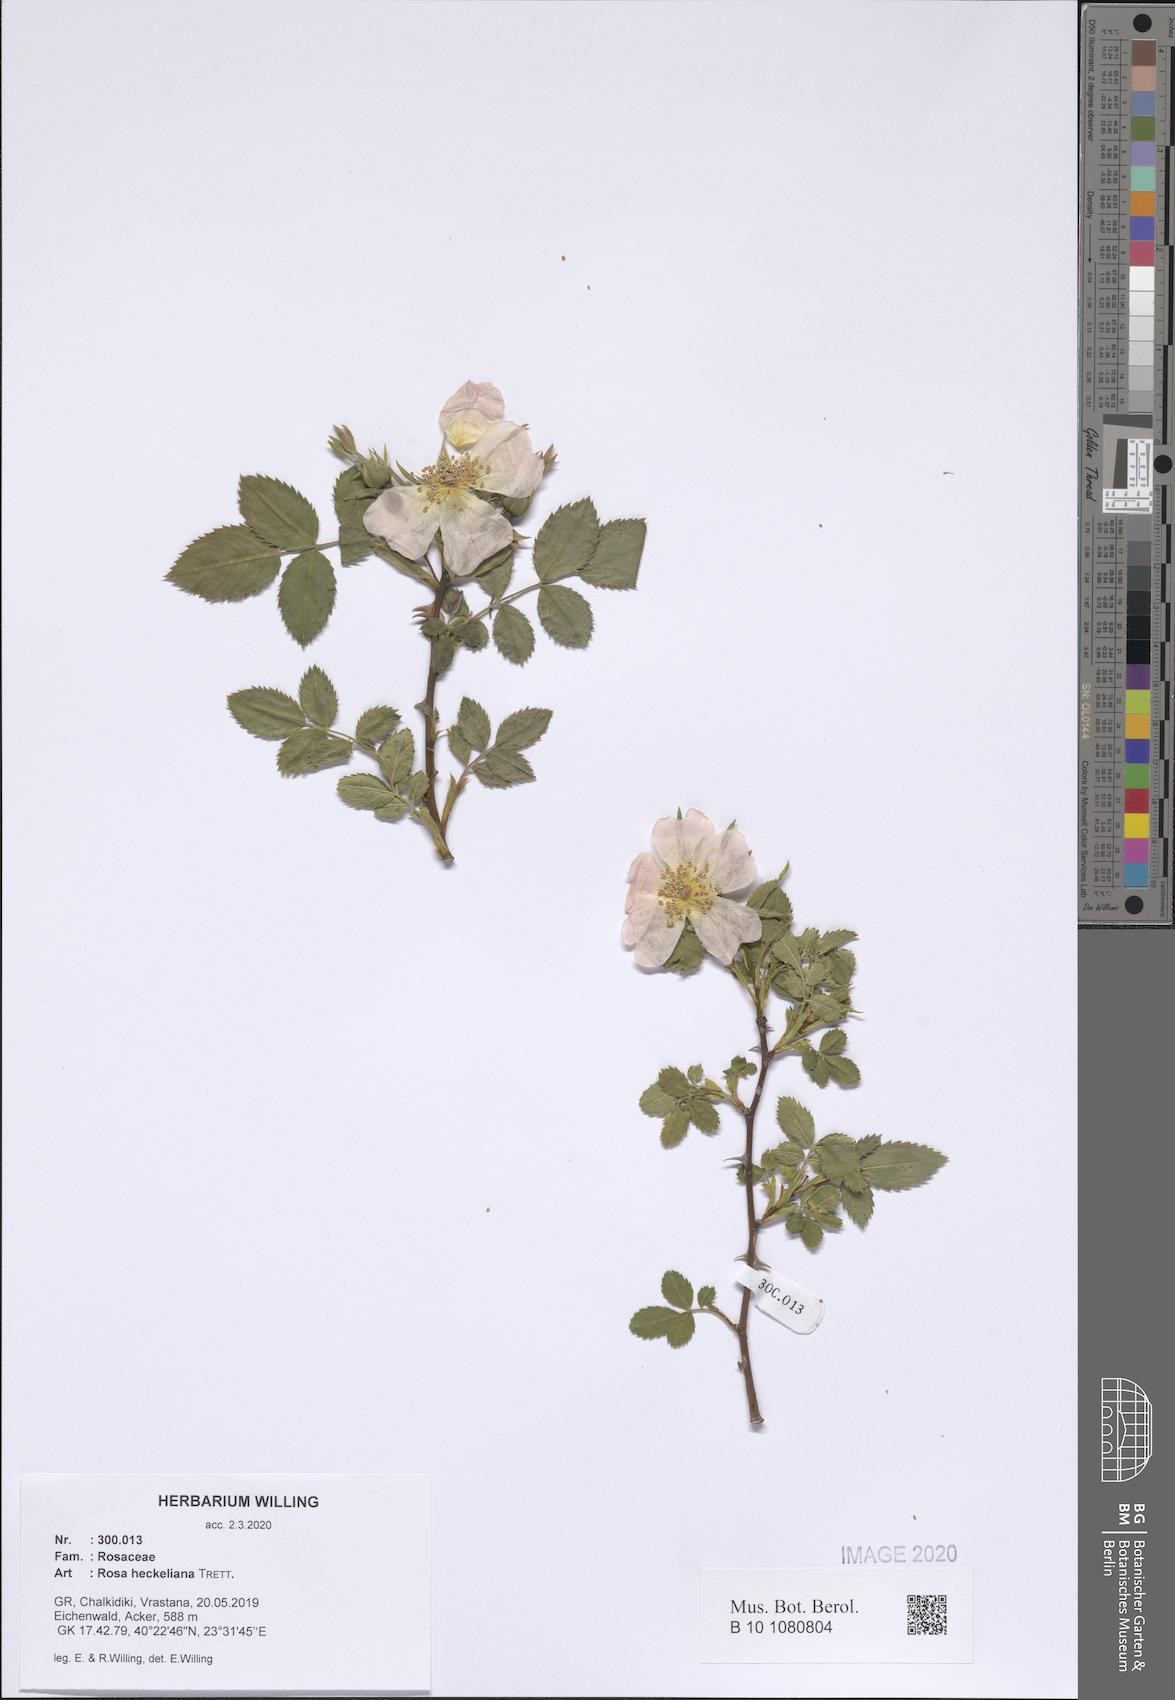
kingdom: Plantae
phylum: Tracheophyta
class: Magnoliopsida
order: Rosales
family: Rosaceae
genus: Rosa
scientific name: Rosa heckeliana
